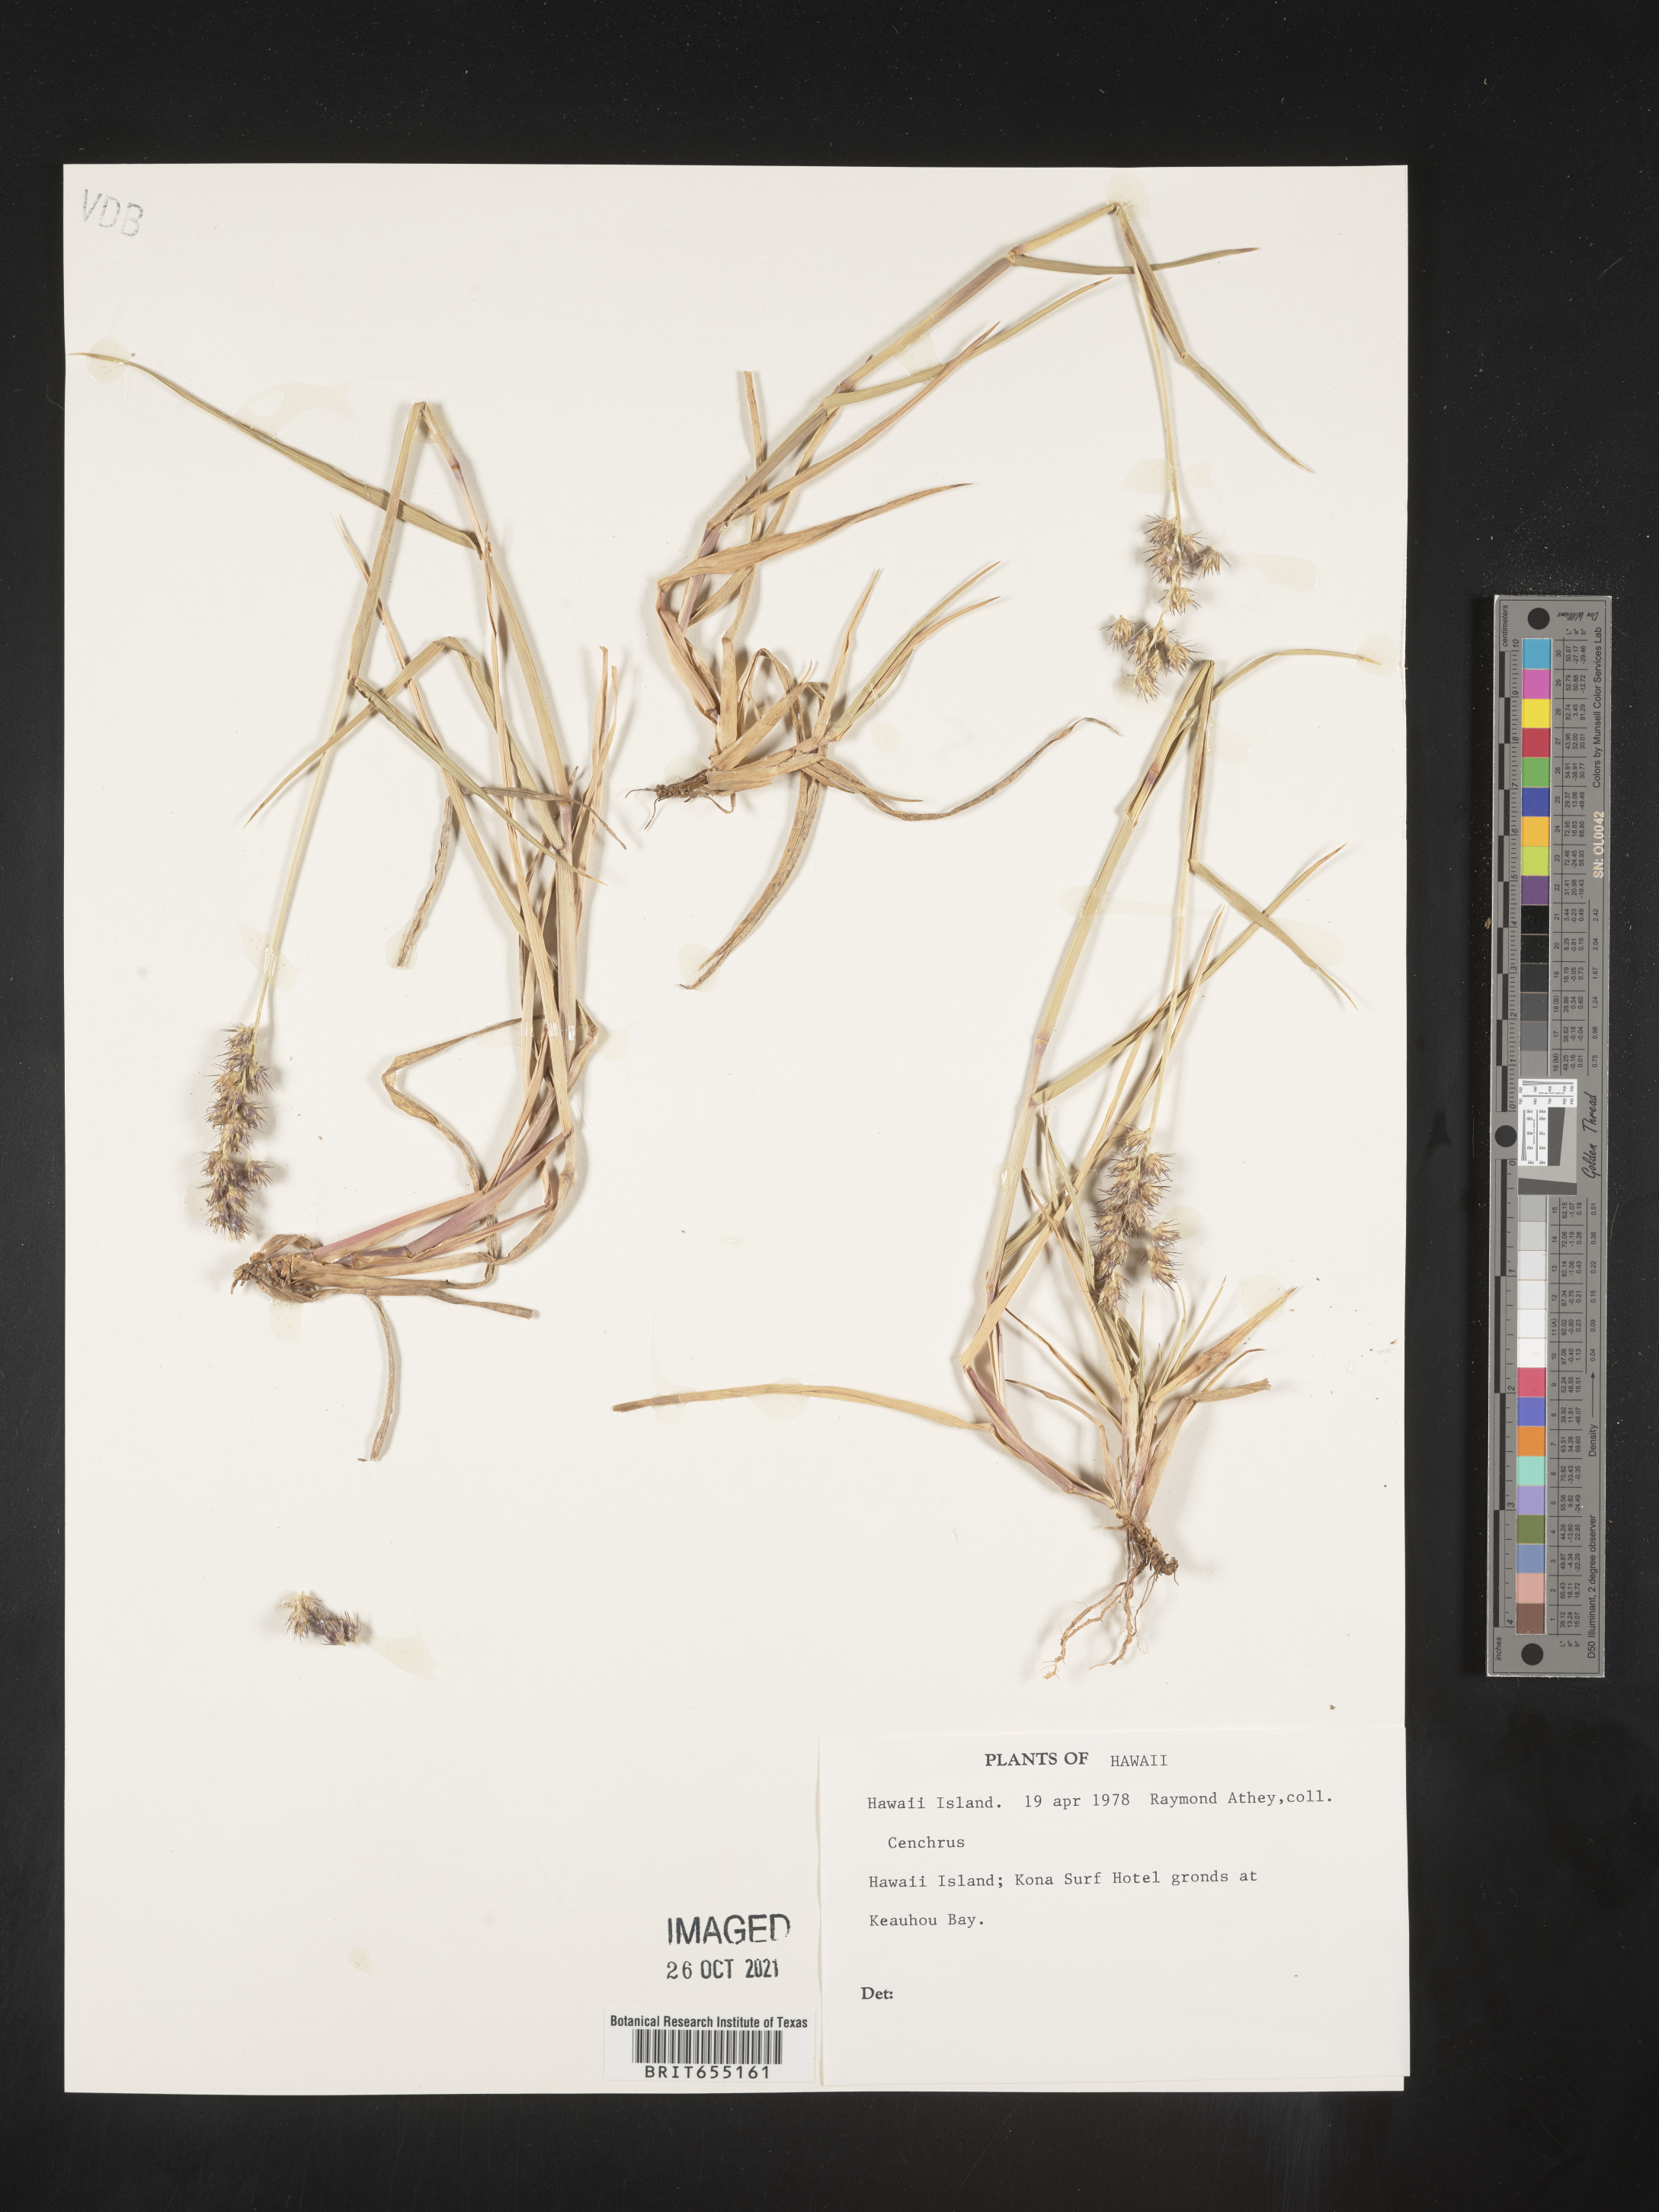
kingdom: Plantae
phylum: Tracheophyta
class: Liliopsida
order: Poales
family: Poaceae
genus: Cenchrus
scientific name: Cenchrus
